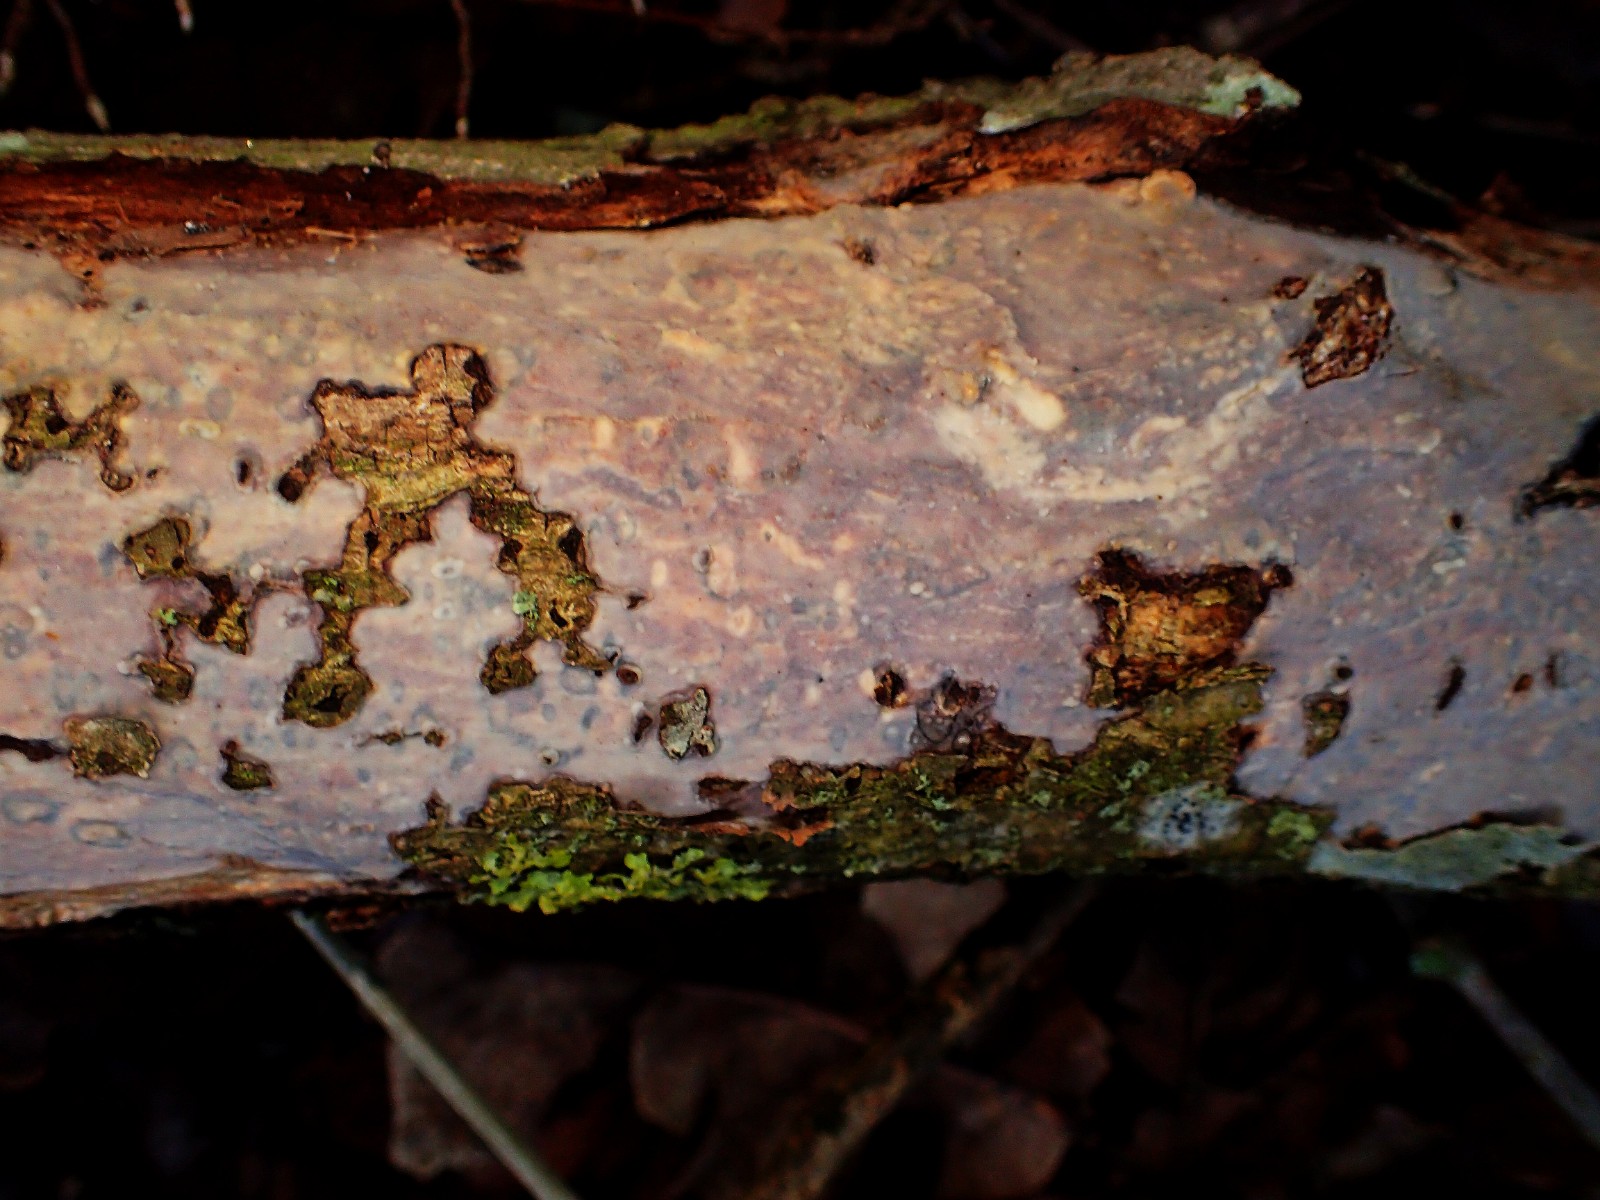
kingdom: Fungi
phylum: Basidiomycota
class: Agaricomycetes
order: Russulales
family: Peniophoraceae
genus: Peniophora
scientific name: Peniophora quercina
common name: ege-voksskind
